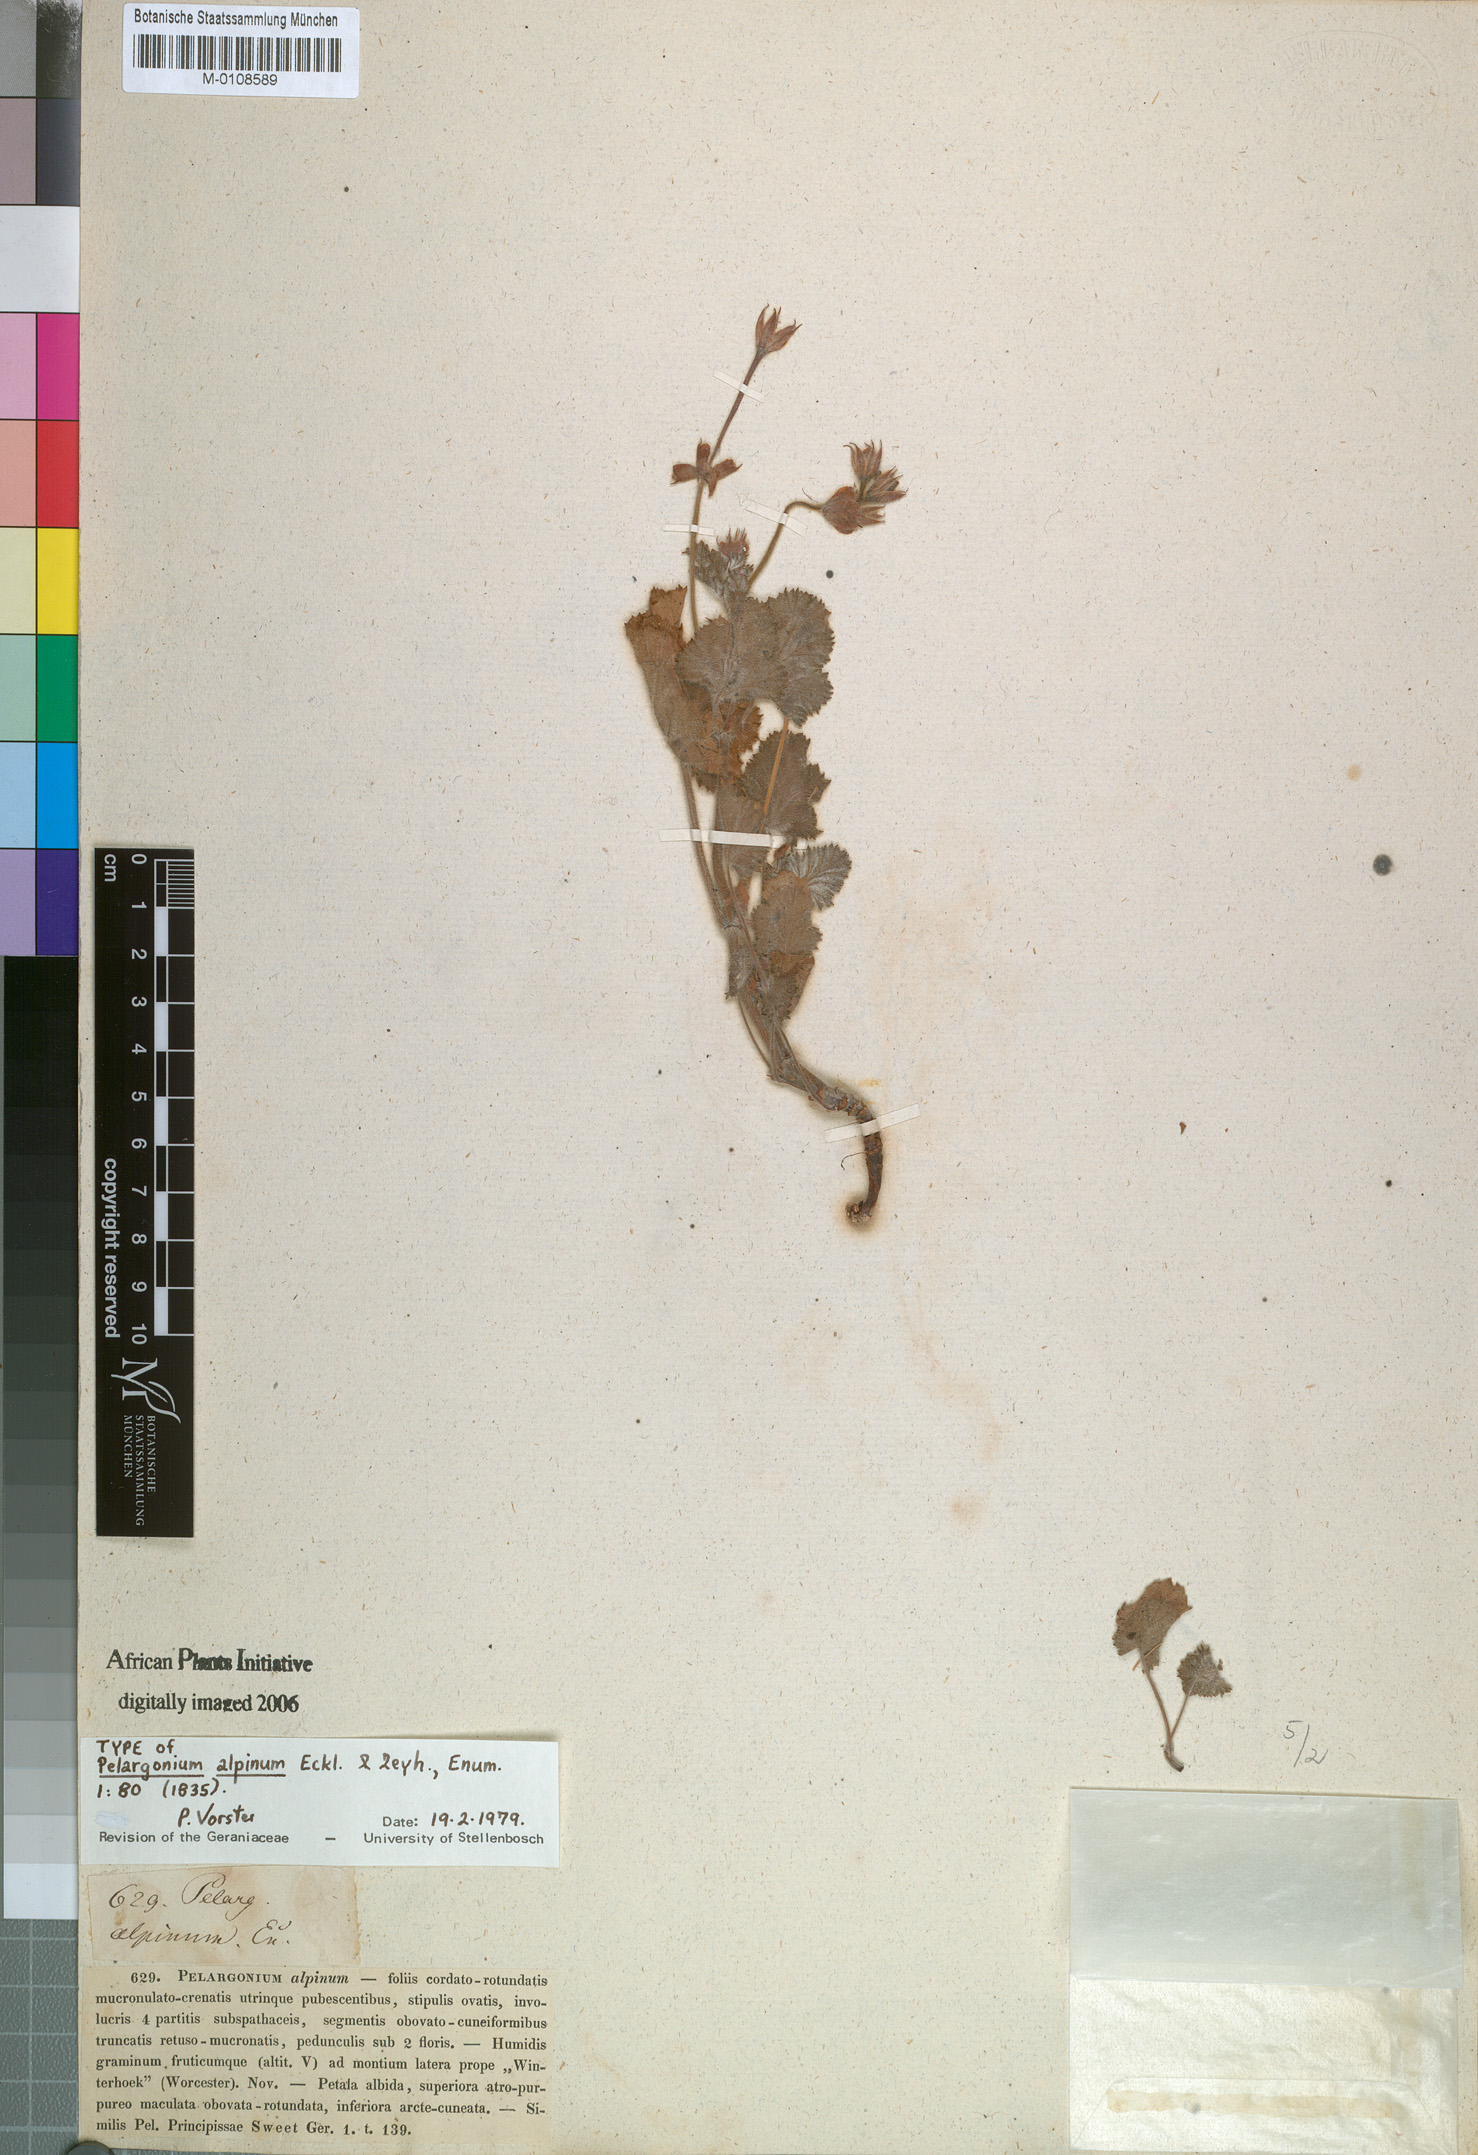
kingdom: Plantae
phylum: Tracheophyta
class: Magnoliopsida
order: Geraniales
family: Geraniaceae
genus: Pelargonium
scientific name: Pelargonium alpinum
